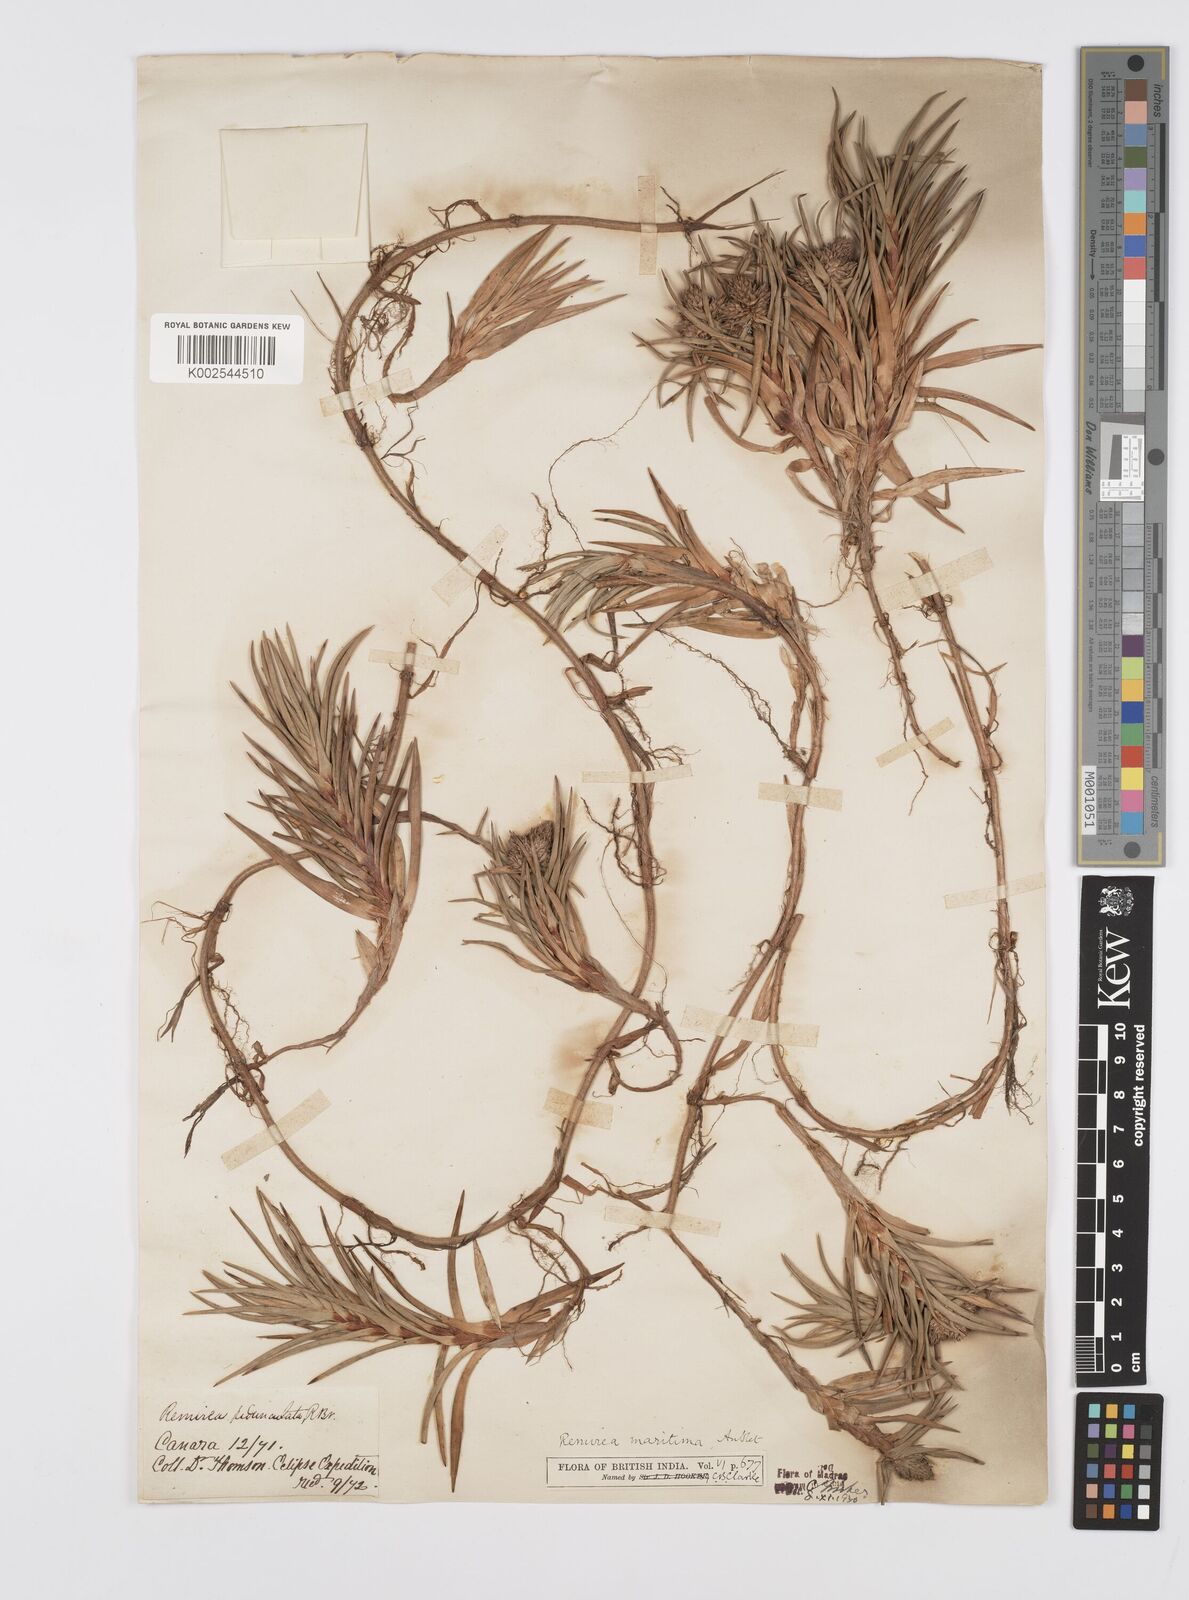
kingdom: Plantae
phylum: Tracheophyta
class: Liliopsida
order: Poales
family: Cyperaceae
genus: Cyperus
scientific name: Cyperus
